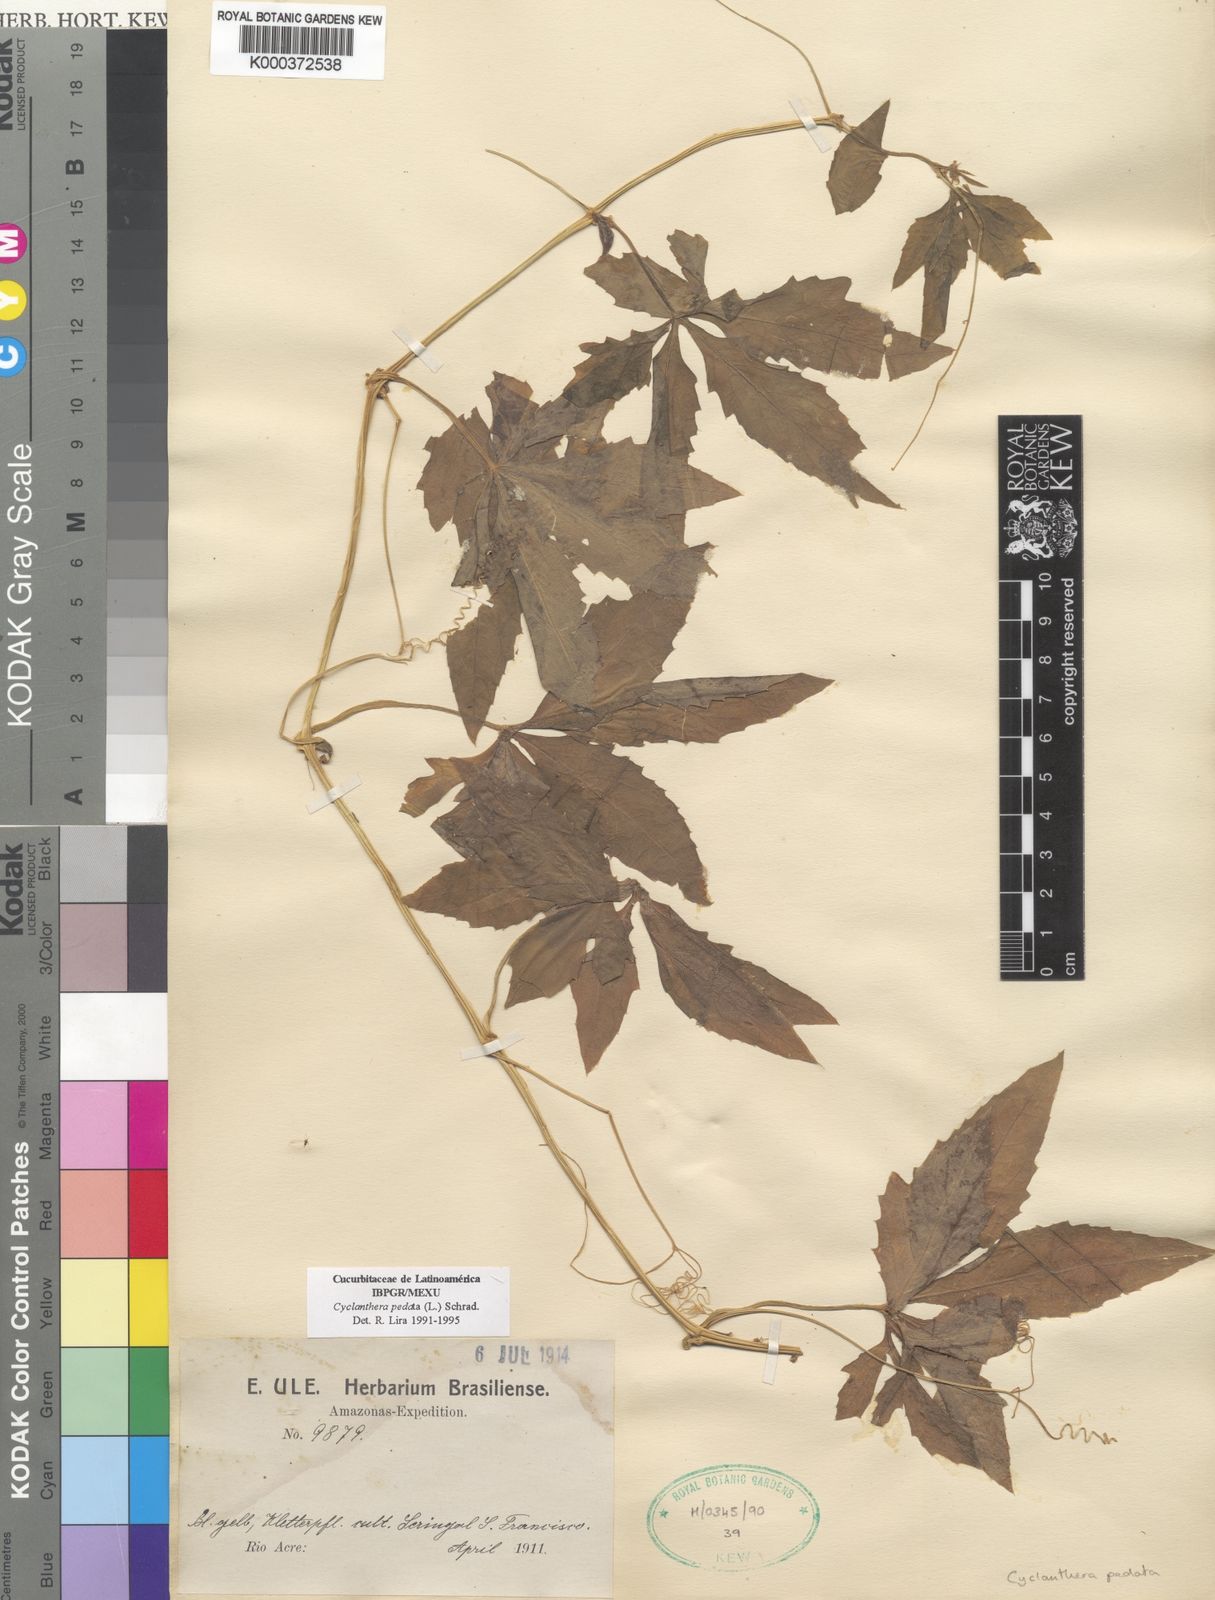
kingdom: Plantae
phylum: Tracheophyta
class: Magnoliopsida
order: Cucurbitales
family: Cucurbitaceae
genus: Cyclanthera
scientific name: Cyclanthera pedata
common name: Slipper goard
